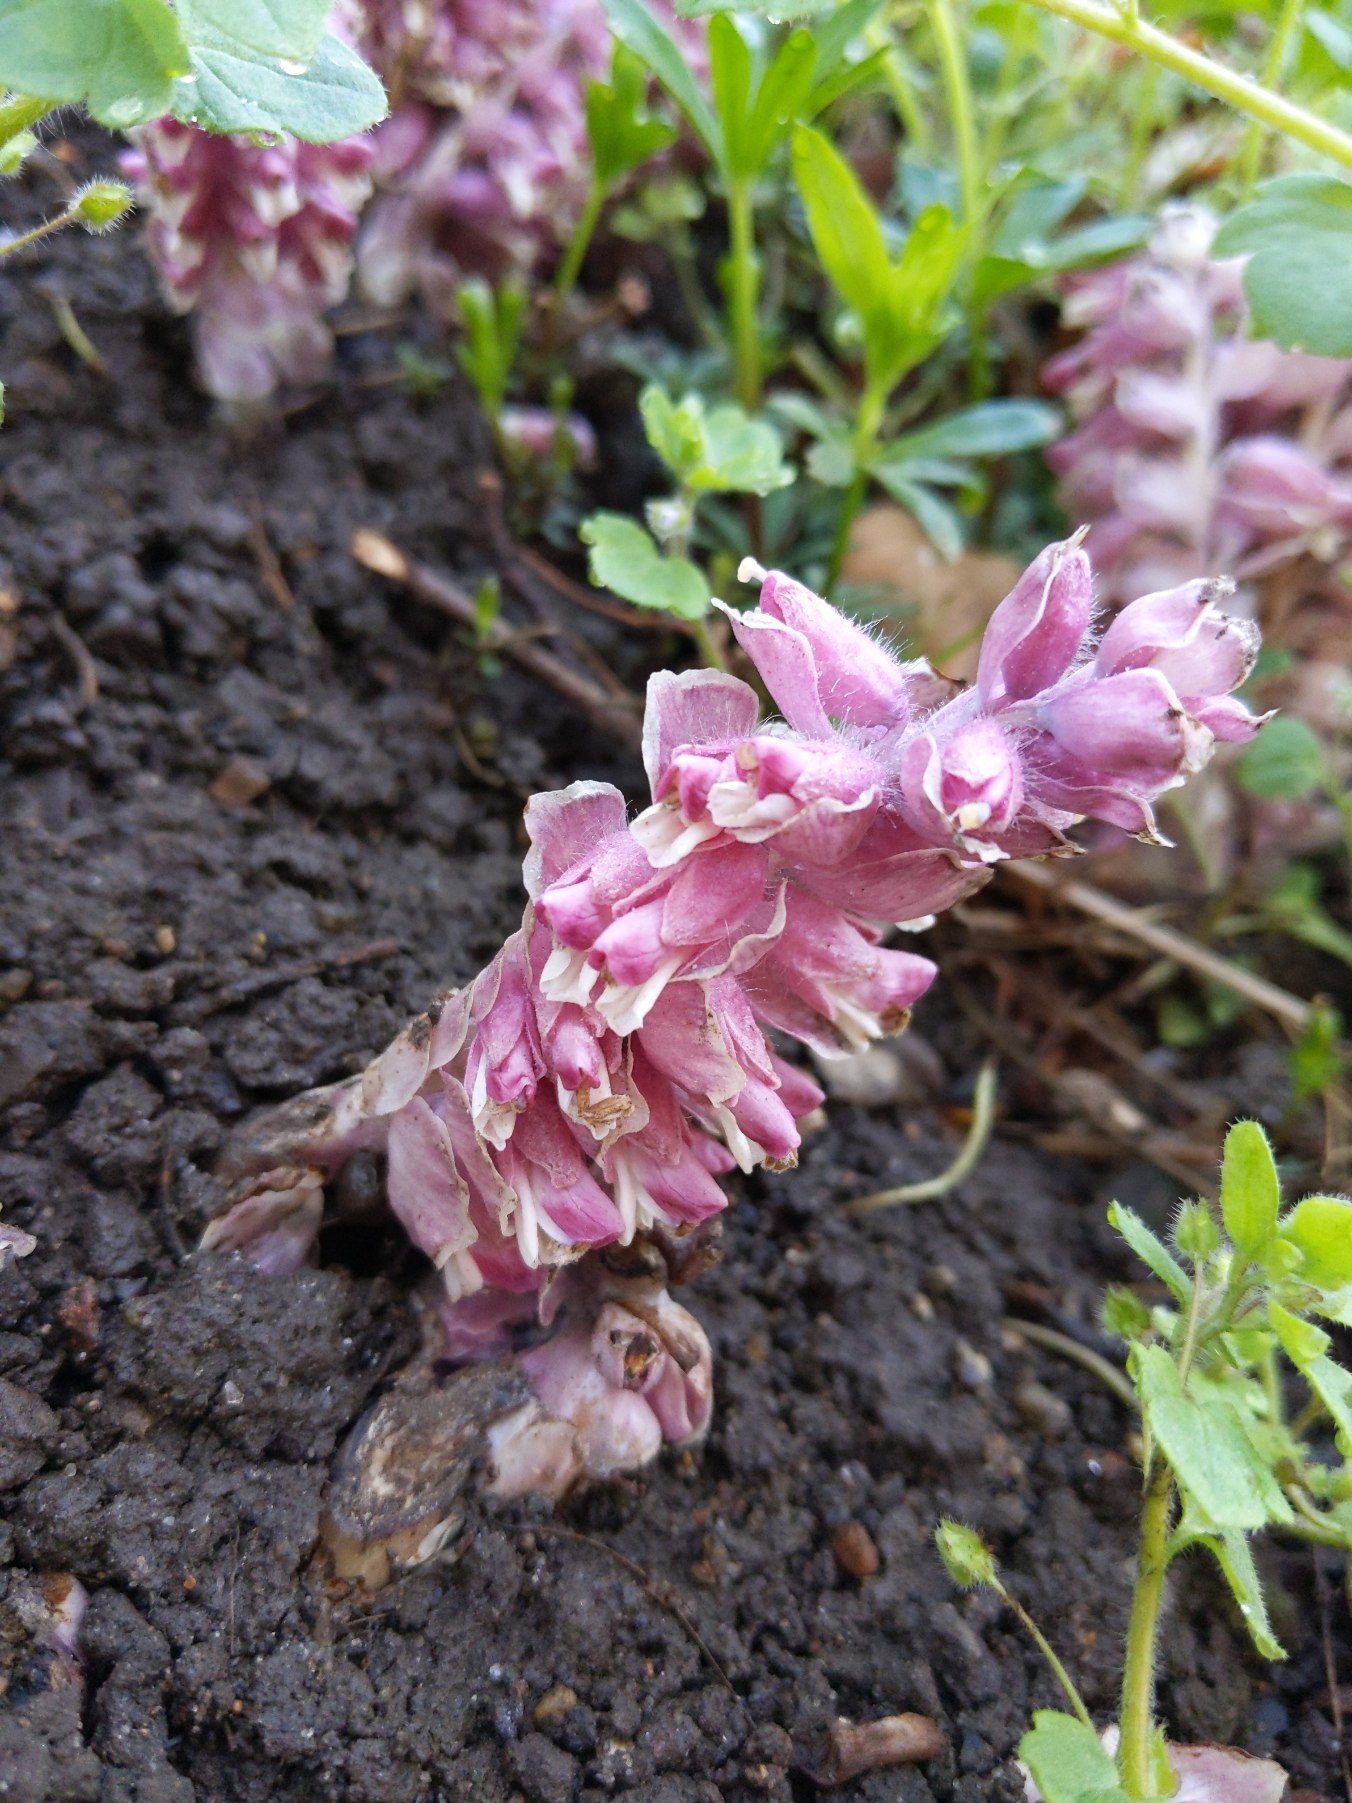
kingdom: Plantae
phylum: Tracheophyta
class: Magnoliopsida
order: Lamiales
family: Orobanchaceae
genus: Lathraea
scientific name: Lathraea squamaria
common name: Skælrod
